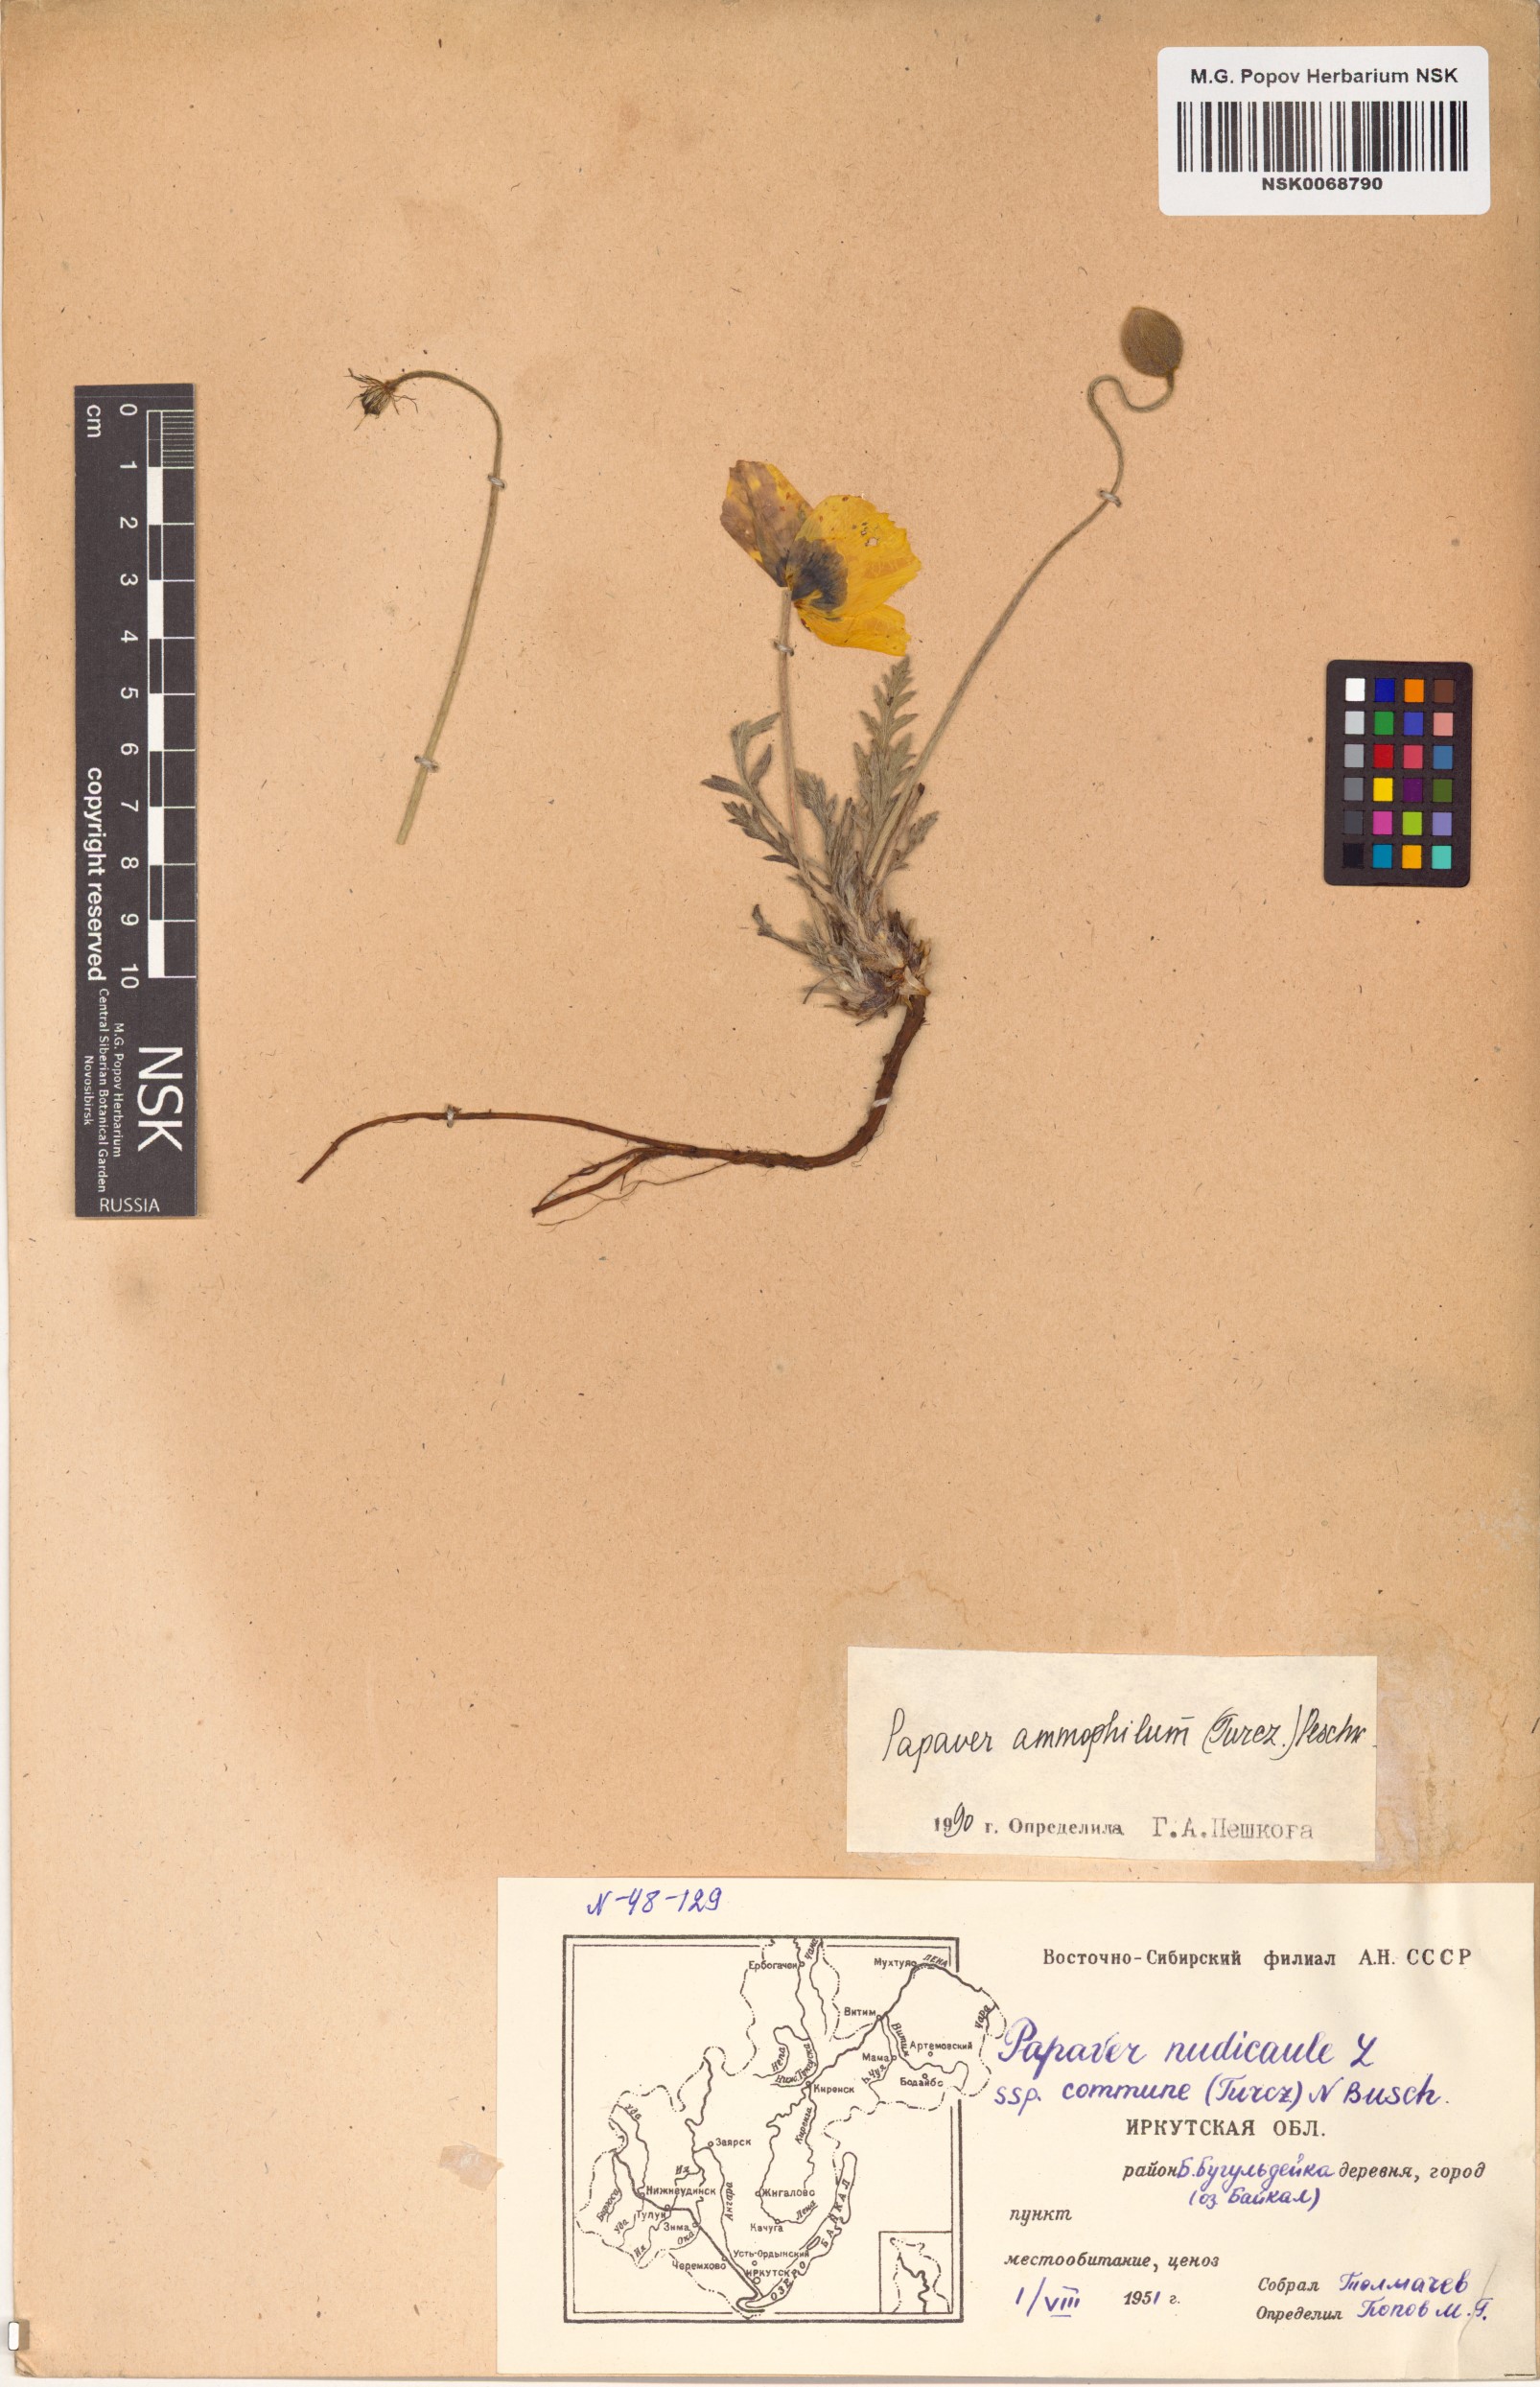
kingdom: Plantae
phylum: Tracheophyta
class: Magnoliopsida
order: Ranunculales
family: Papaveraceae
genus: Papaver
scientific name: Papaver nudicaule
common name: Arctic poppy
